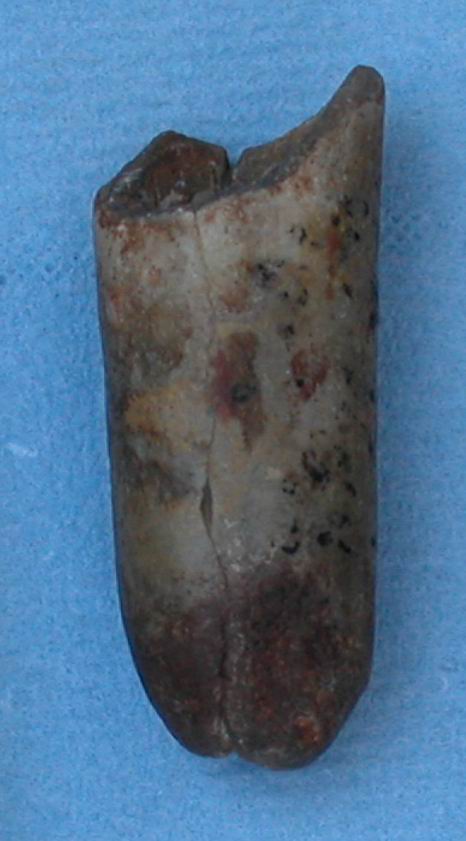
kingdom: Animalia
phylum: Mollusca
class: Cephalopoda
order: Belemnitida
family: Megateuthididae
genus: Dactyloteuthis
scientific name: Dactyloteuthis irregularis
